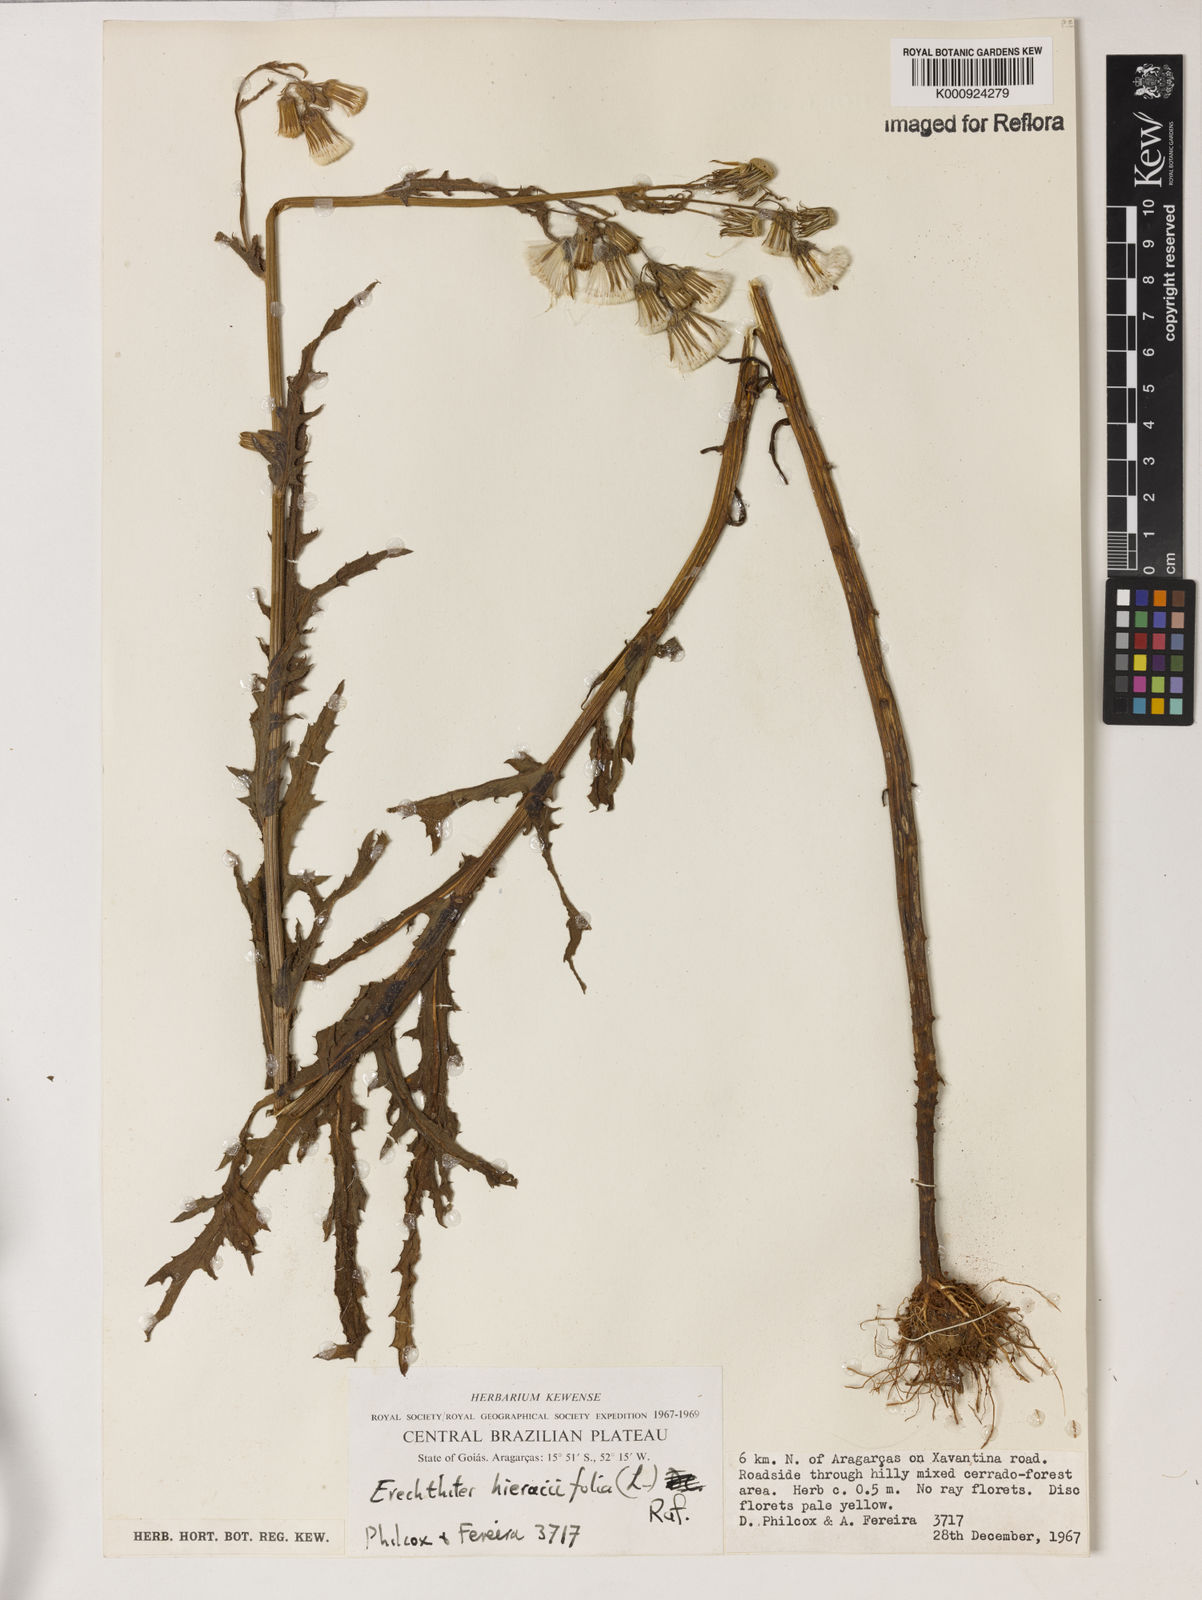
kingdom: Plantae
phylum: Tracheophyta
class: Magnoliopsida
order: Asterales
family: Asteraceae
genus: Erechtites
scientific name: Erechtites hieraciifolius
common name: American burnweed
